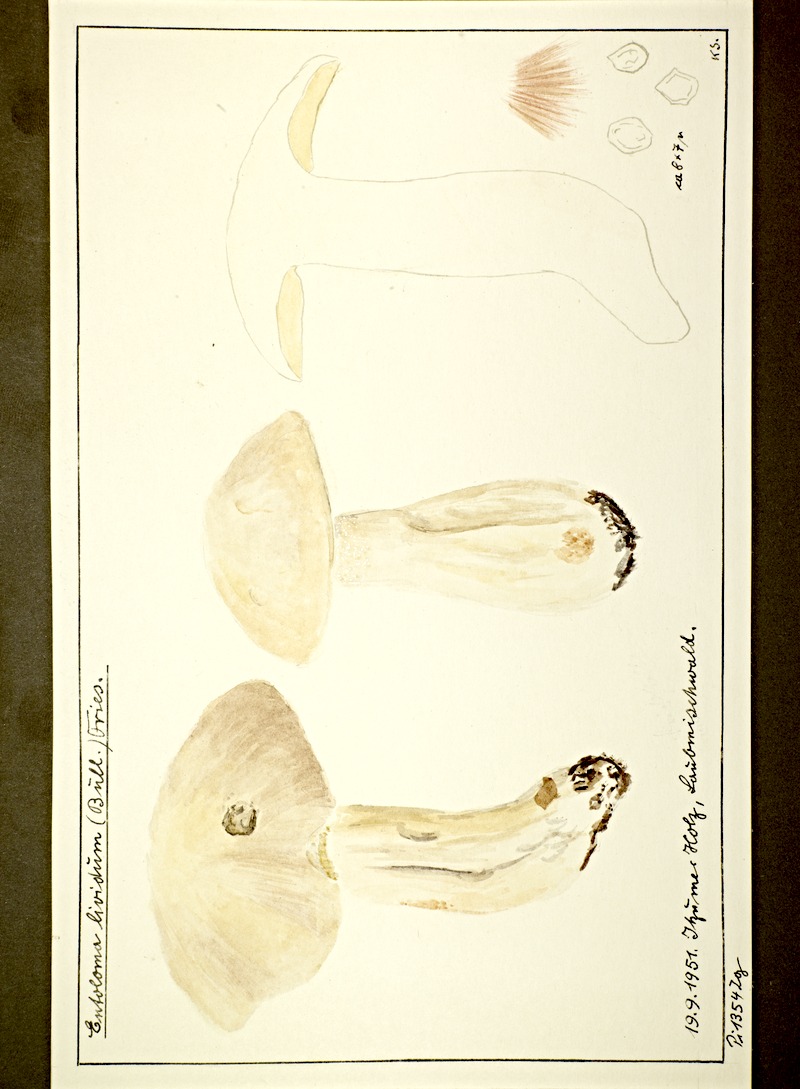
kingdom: Fungi
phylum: Basidiomycota
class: Agaricomycetes
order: Agaricales
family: Entolomataceae
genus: Entoloma
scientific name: Entoloma sinuatum
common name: Livid pinkgill
